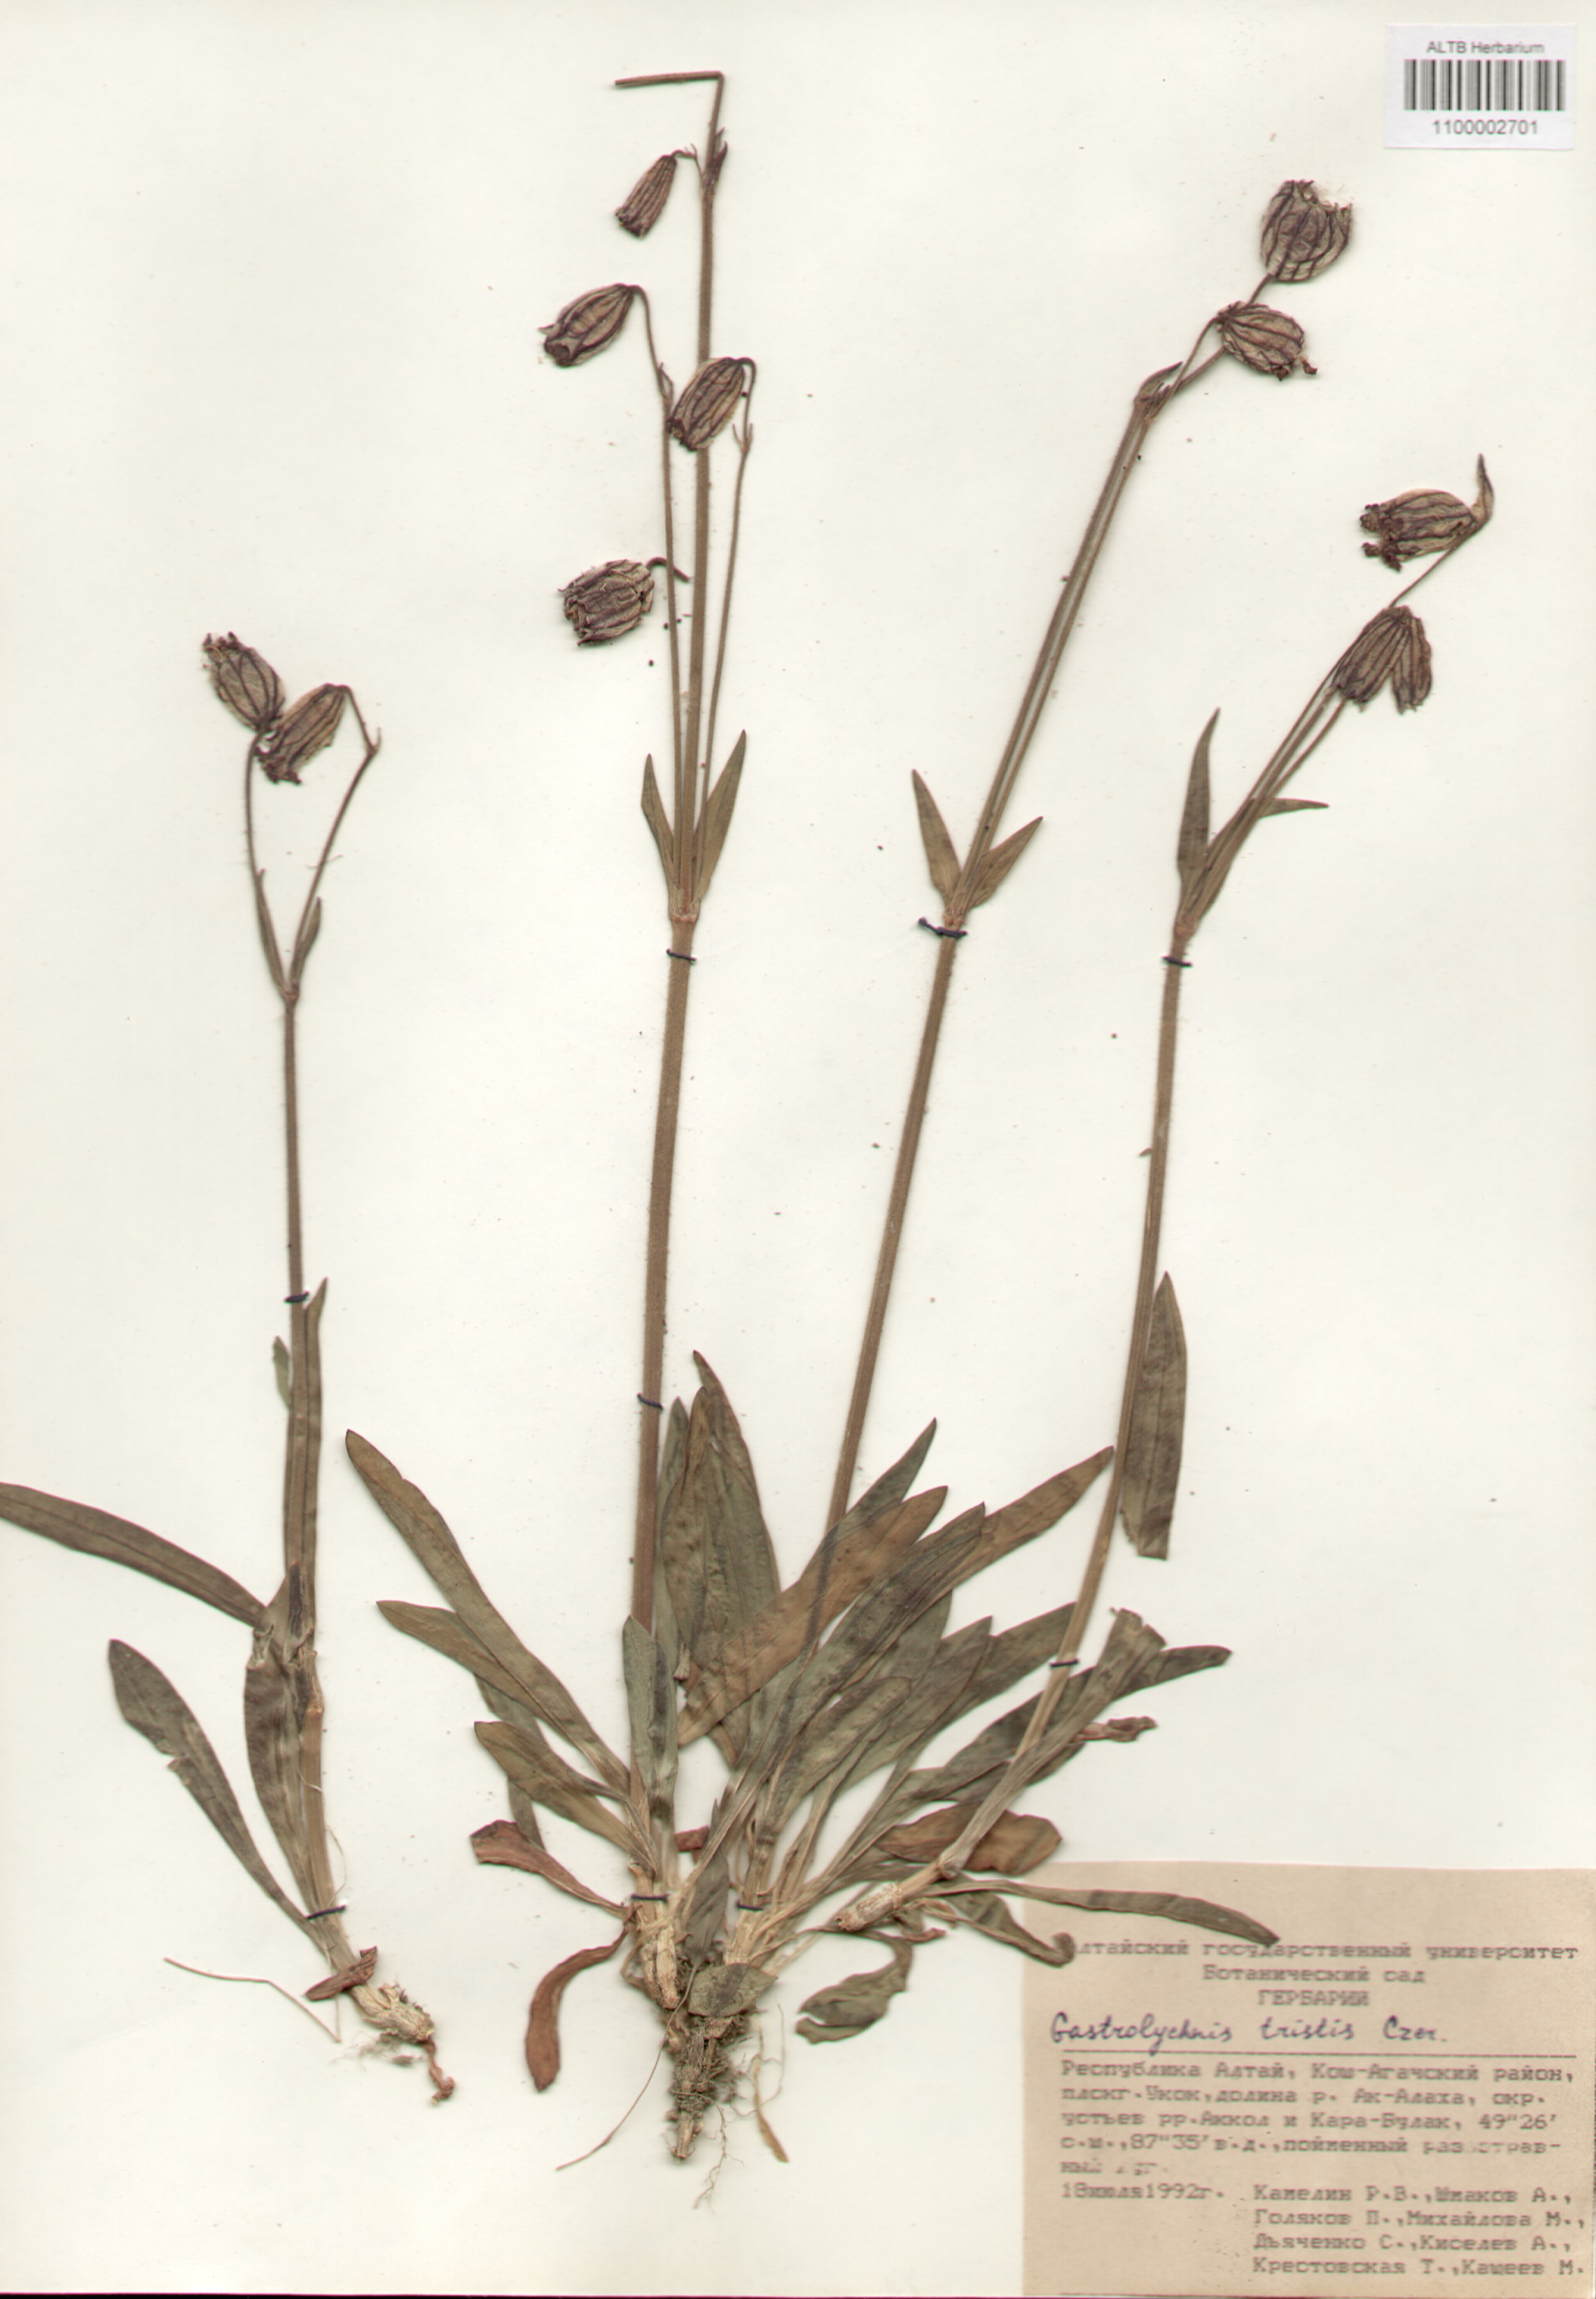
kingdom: Plantae
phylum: Tracheophyta
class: Magnoliopsida
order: Caryophyllales
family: Caryophyllaceae
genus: Silene
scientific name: Silene bungei
